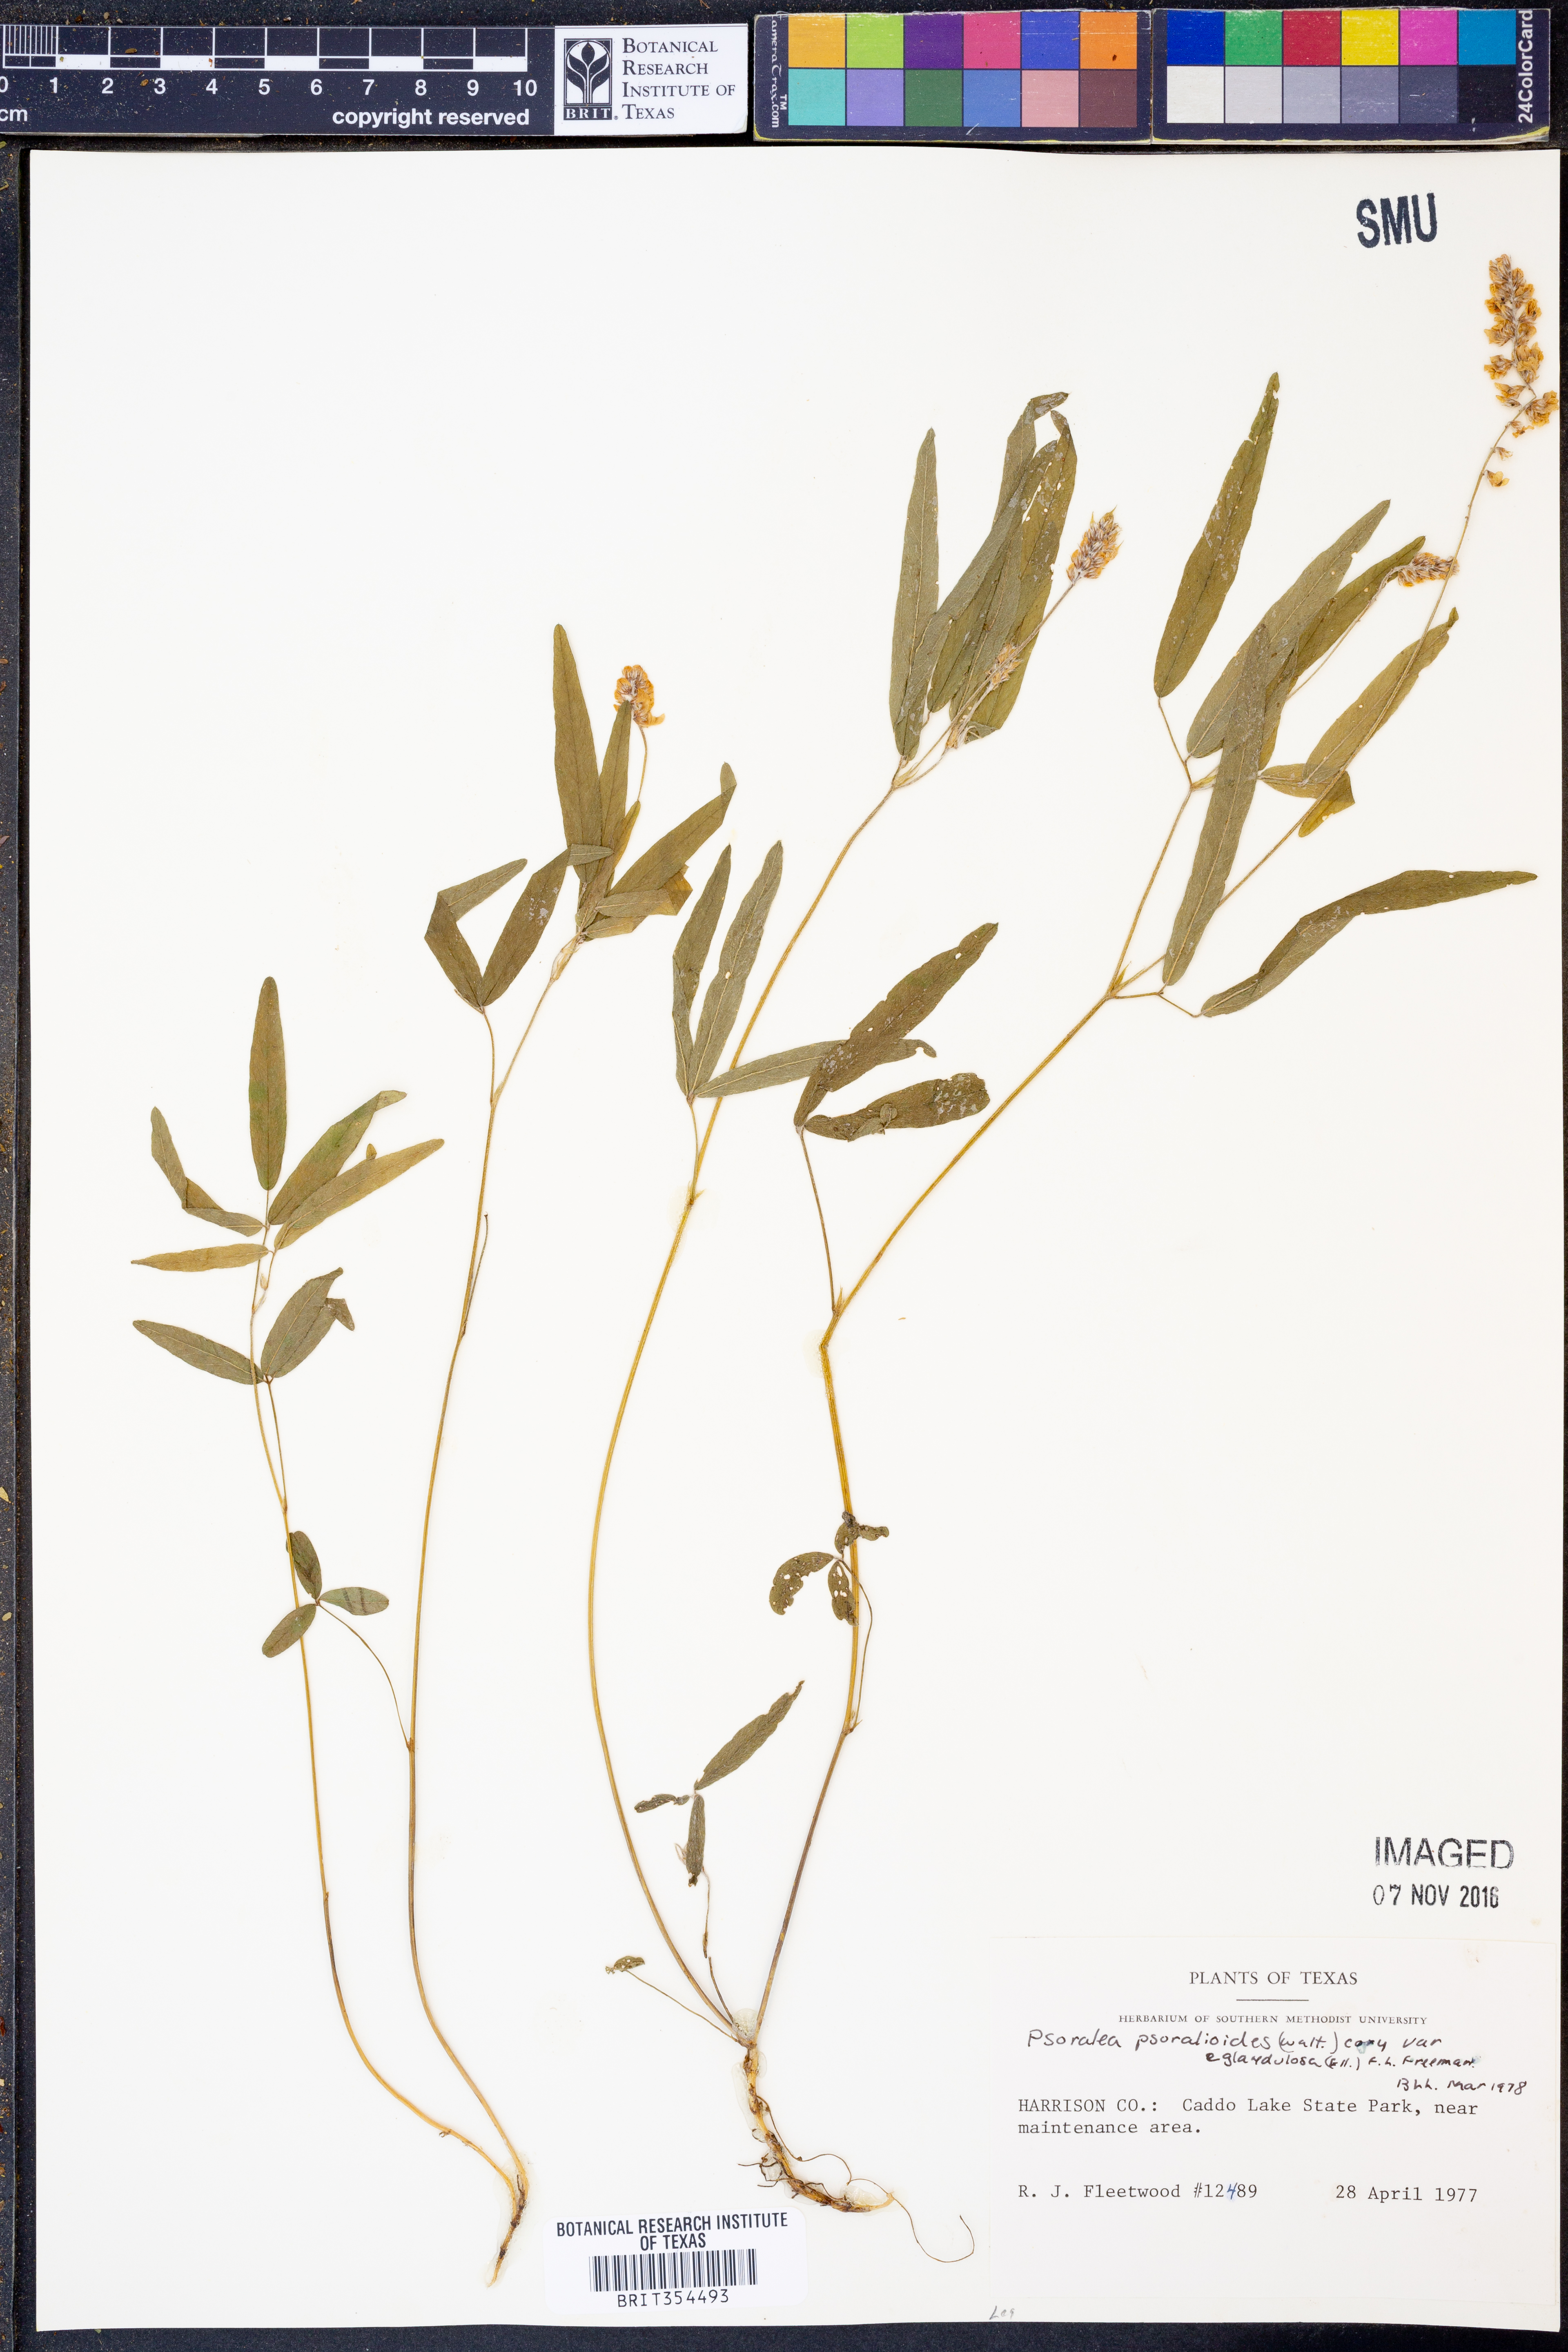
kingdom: Plantae
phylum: Tracheophyta
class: Magnoliopsida
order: Fabales
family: Fabaceae
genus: Orbexilum
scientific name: Orbexilum pedunculatum
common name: Sampson's snakeroot
